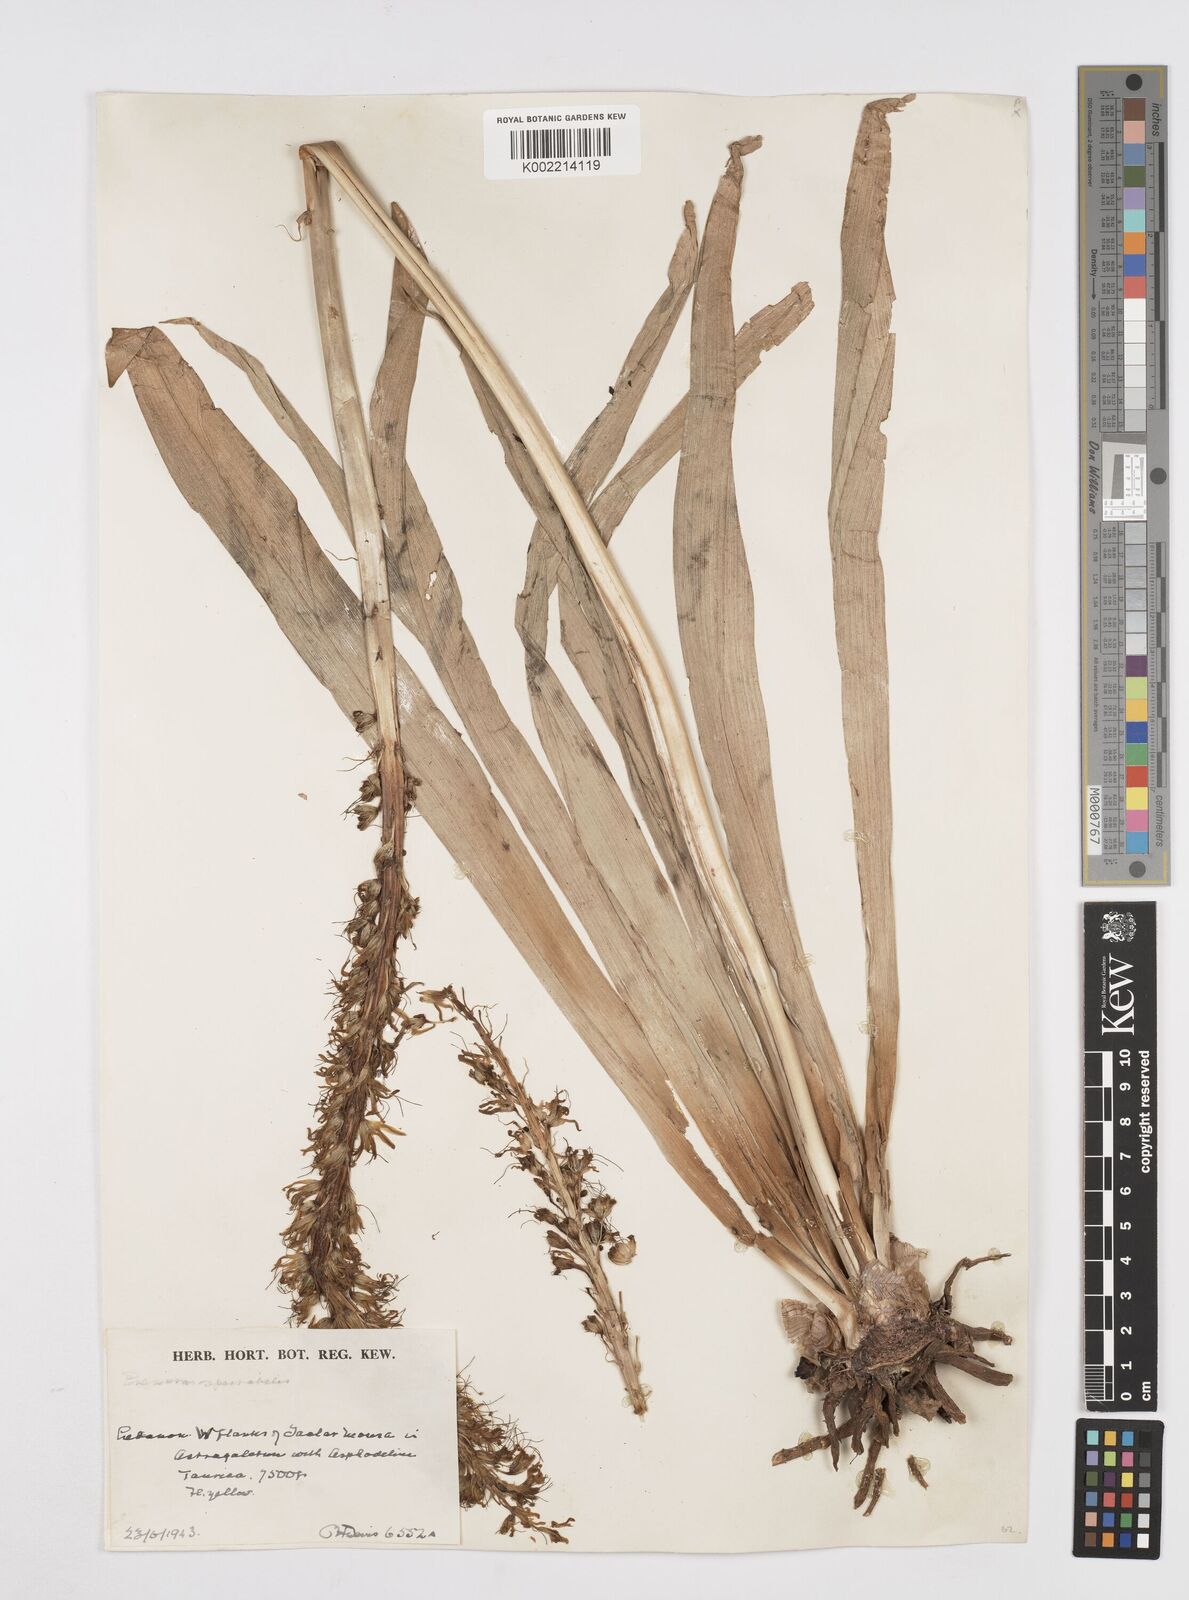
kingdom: Plantae
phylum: Tracheophyta
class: Liliopsida
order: Asparagales
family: Asphodelaceae
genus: Eremurus
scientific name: Eremurus spectabilis
